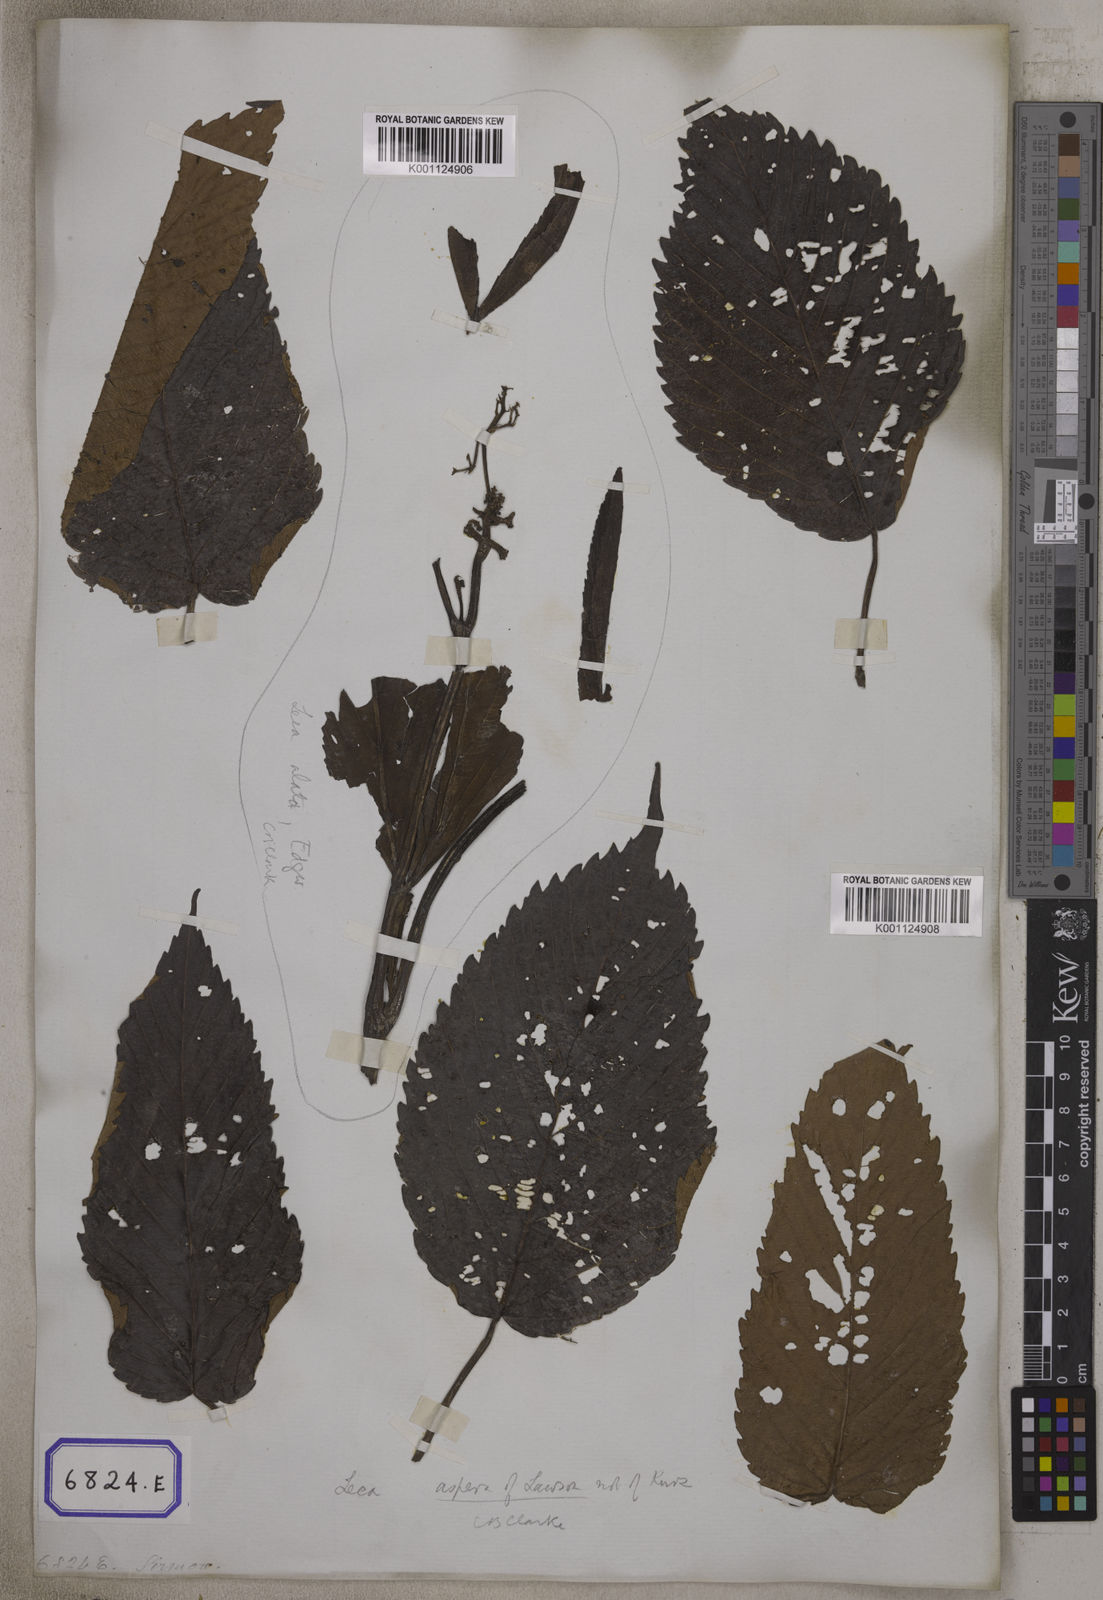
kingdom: Plantae
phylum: Tracheophyta
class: Magnoliopsida
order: Vitales
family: Vitaceae
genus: Leea
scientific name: Leea
